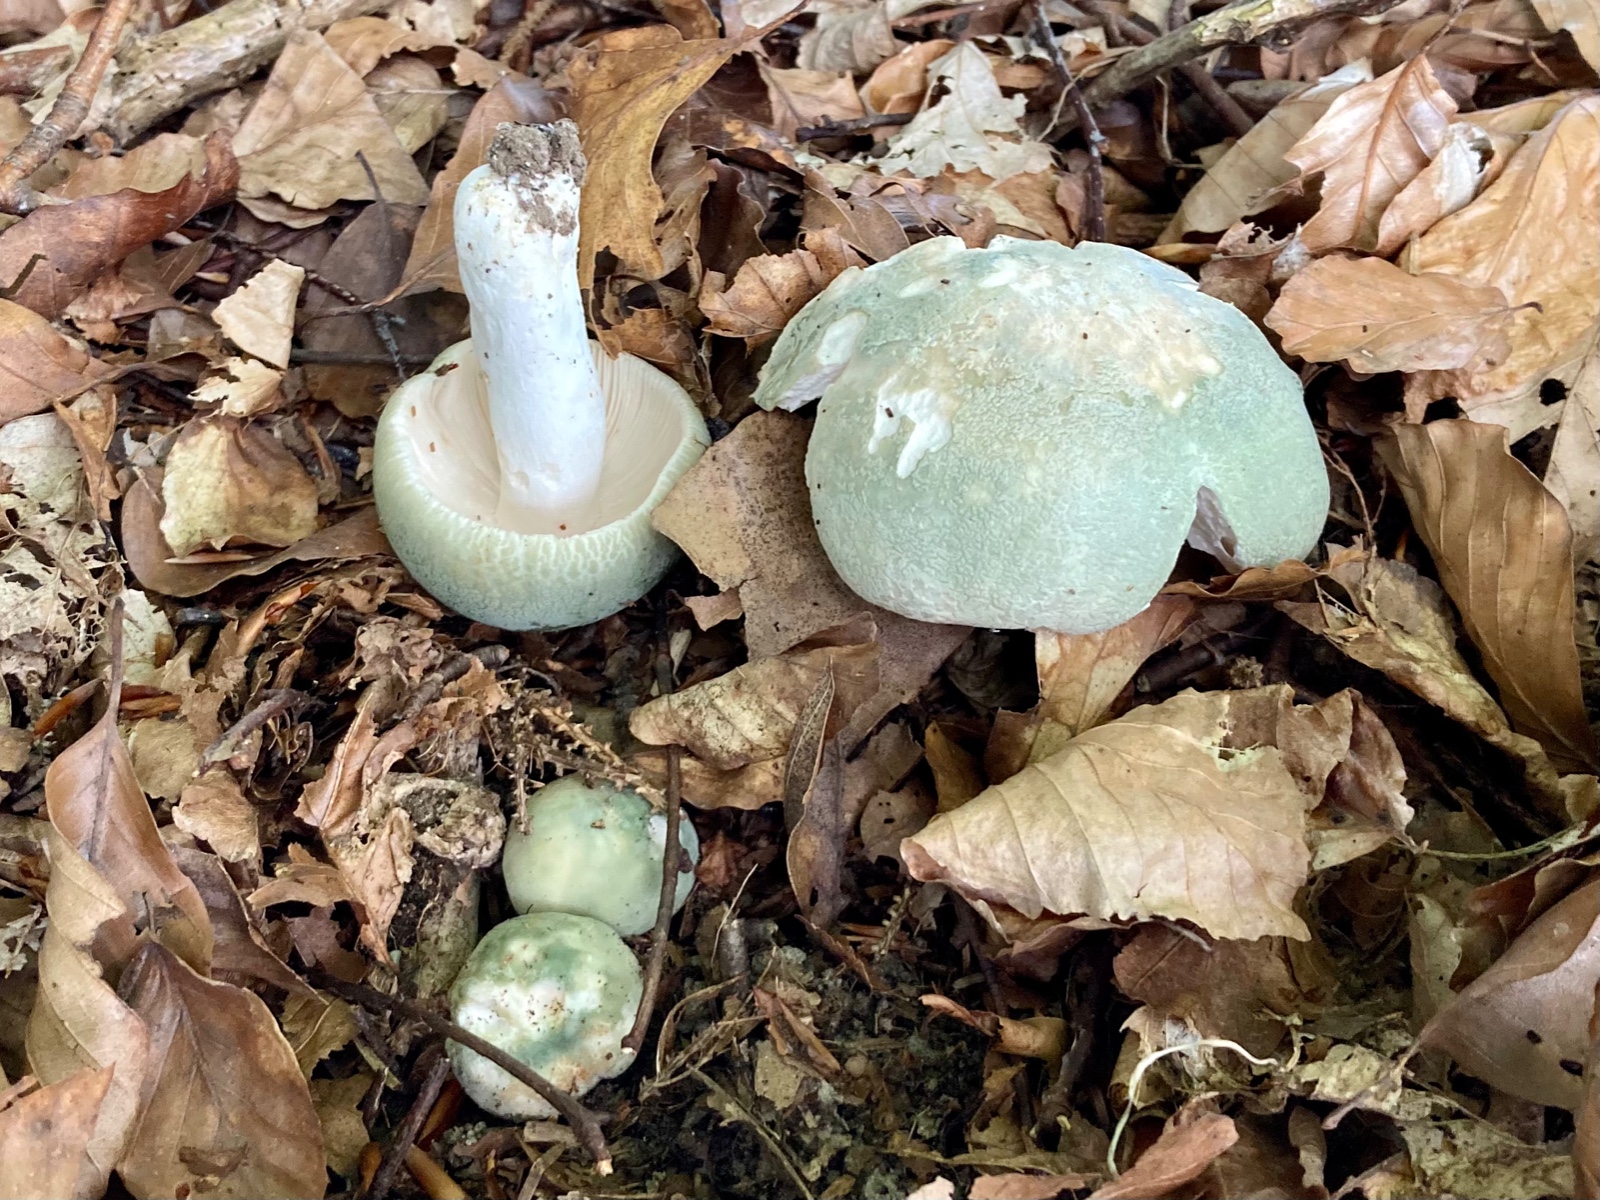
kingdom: Fungi
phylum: Basidiomycota
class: Agaricomycetes
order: Russulales
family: Russulaceae
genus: Russula
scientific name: Russula virescens
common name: spanskgrøn skørhat
